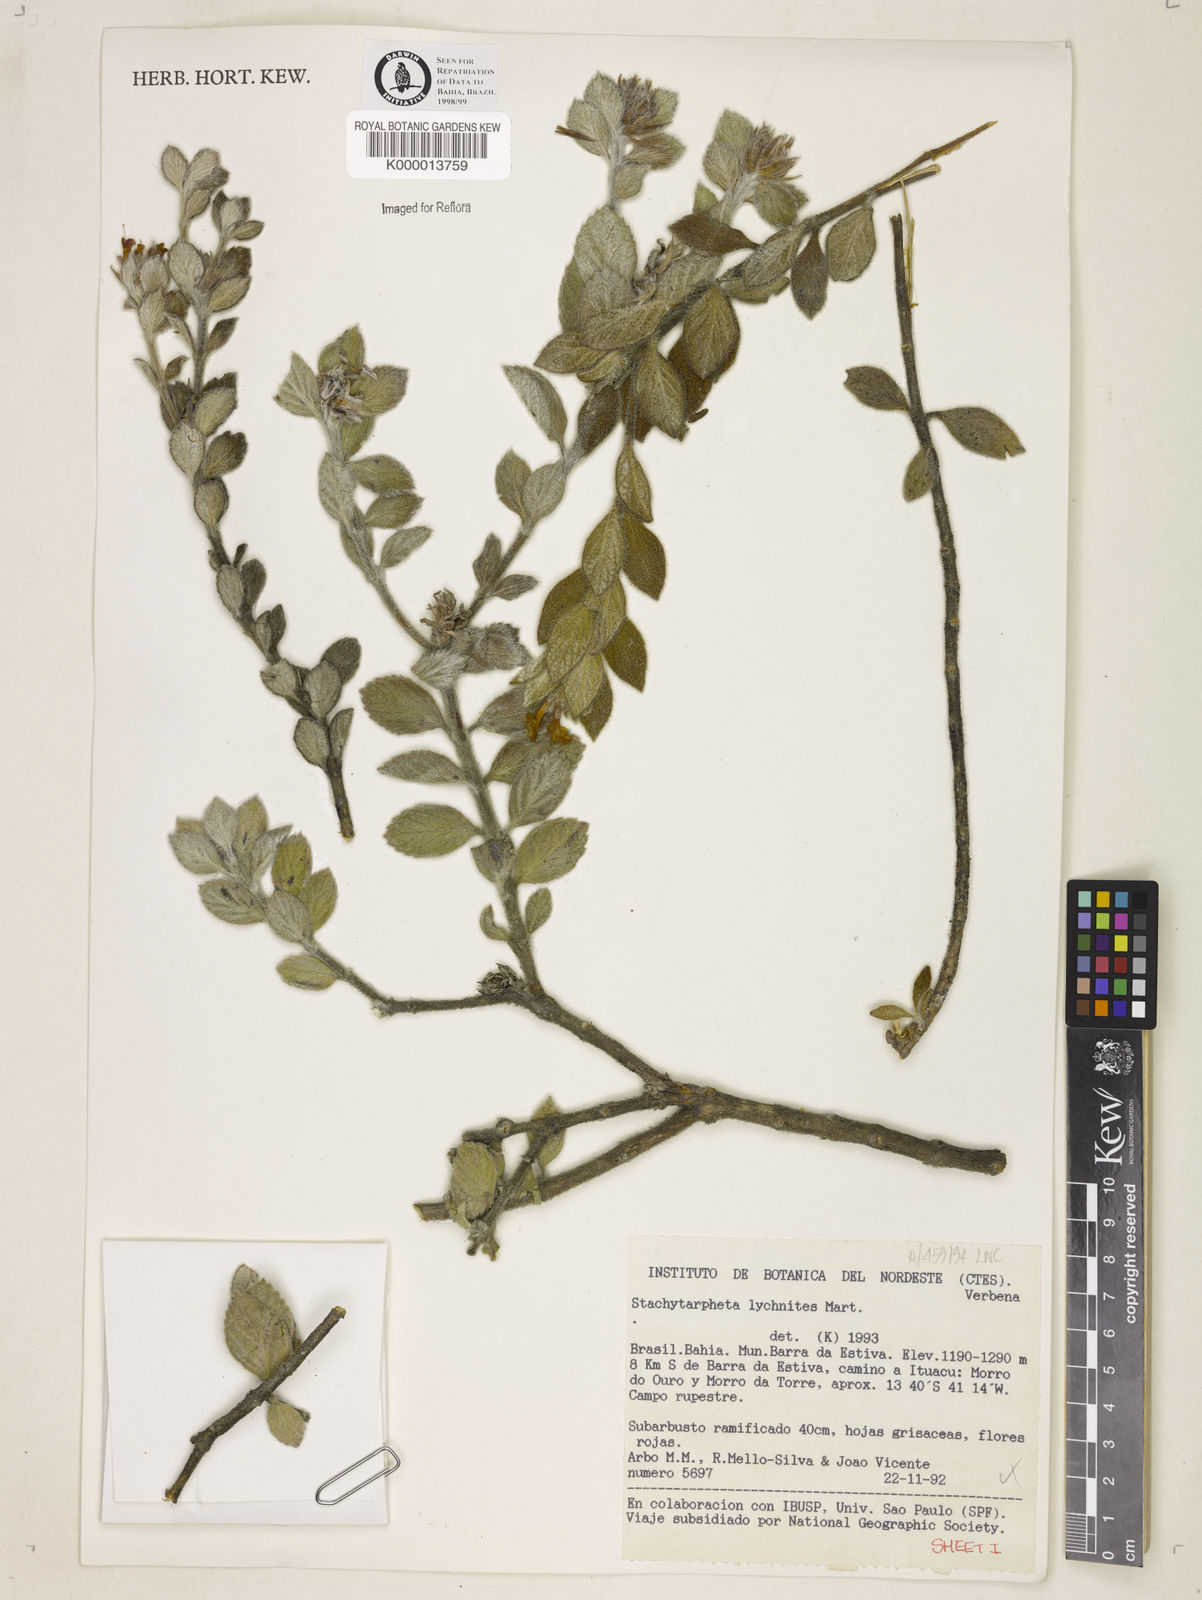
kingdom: Plantae
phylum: Tracheophyta
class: Magnoliopsida
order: Lamiales
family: Verbenaceae
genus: Stachytarpheta
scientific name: Stachytarpheta
